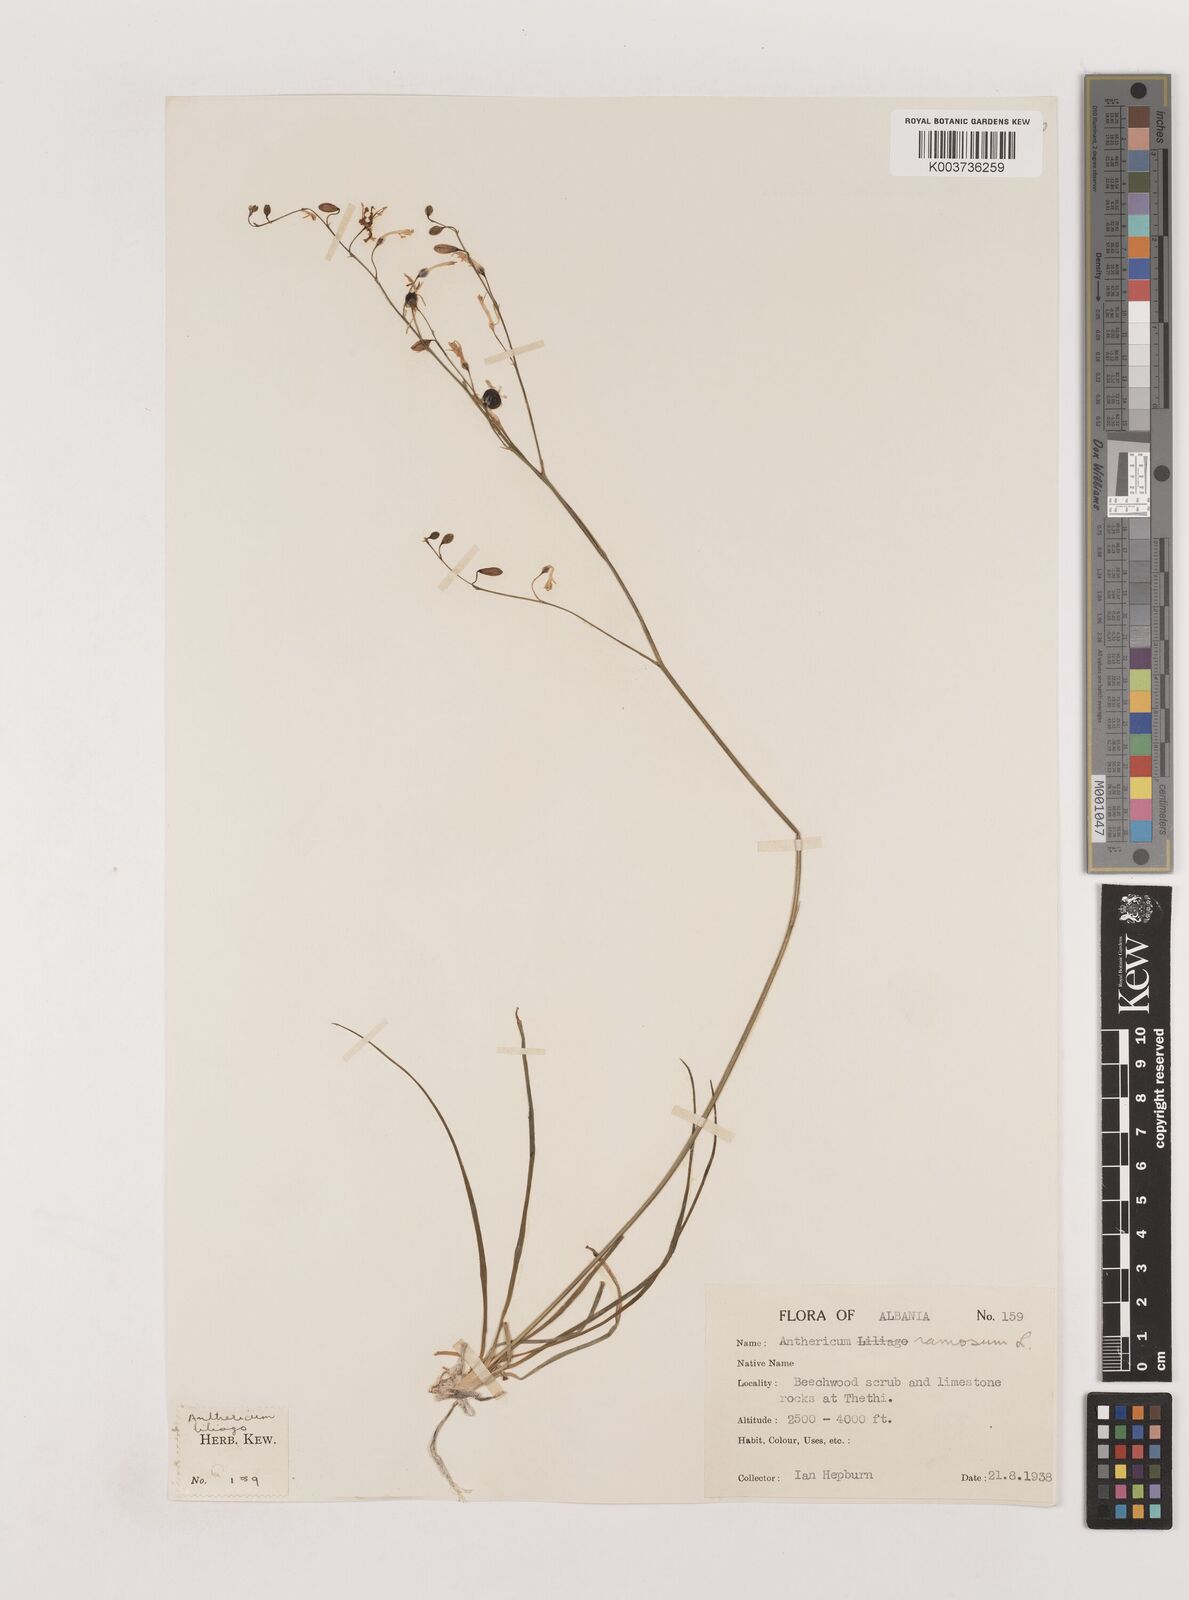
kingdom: Plantae
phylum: Tracheophyta
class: Liliopsida
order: Asparagales
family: Asparagaceae
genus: Anthericum
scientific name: Anthericum ramosum
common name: Branched st. bernard's-lily
